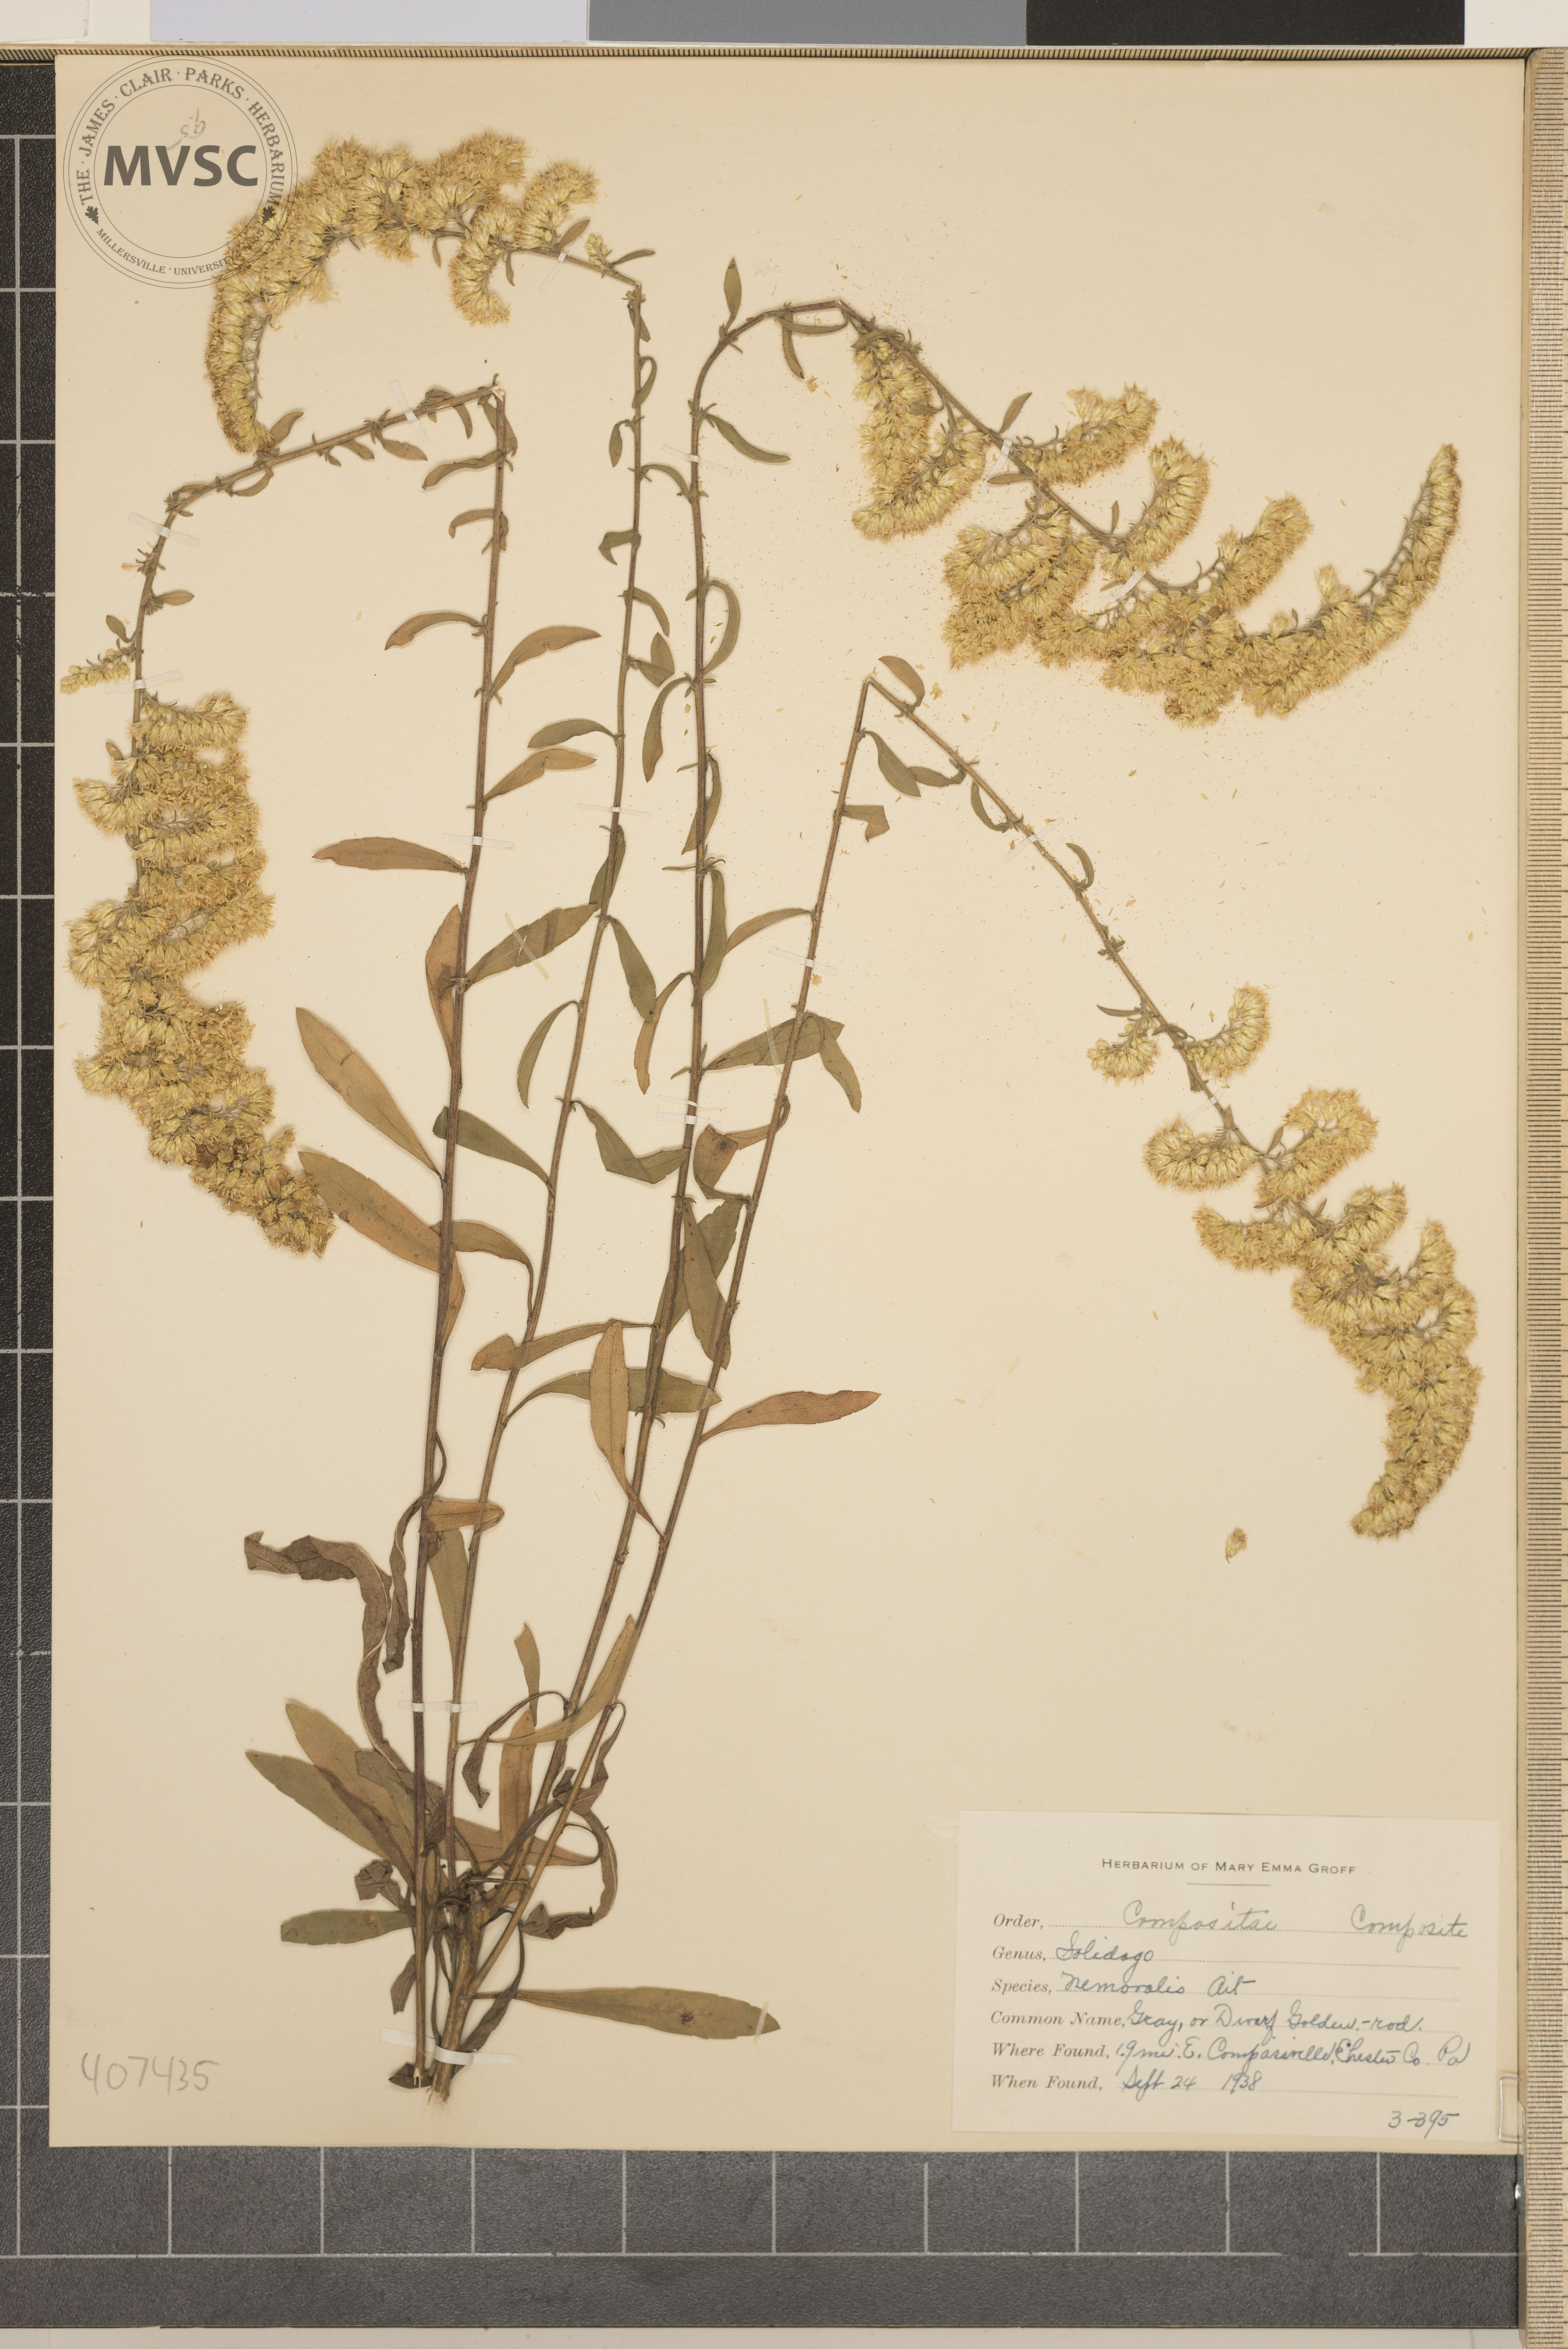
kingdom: Plantae
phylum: Tracheophyta
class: Magnoliopsida
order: Asterales
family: Asteraceae
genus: Solidago
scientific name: Solidago nemoralis
